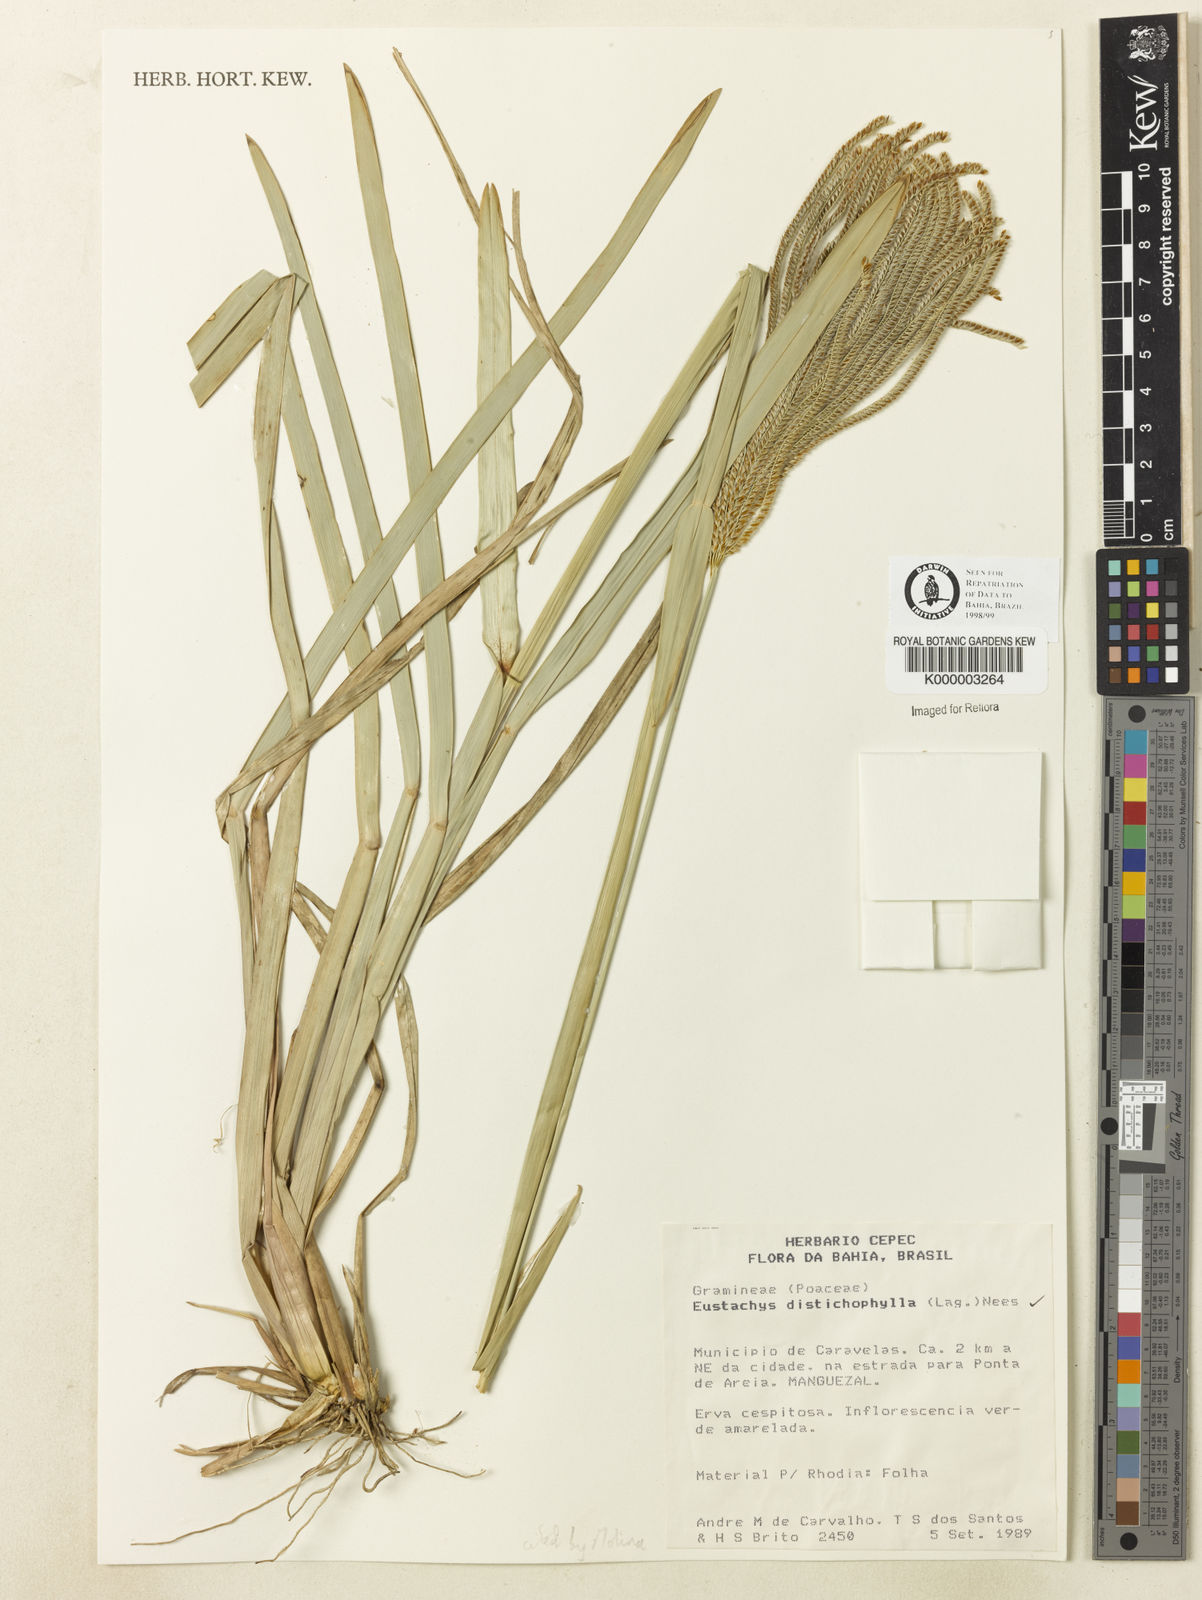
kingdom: Plantae
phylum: Tracheophyta
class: Liliopsida
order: Poales
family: Poaceae
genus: Eustachys
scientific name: Eustachys distichophylla
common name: Weeping fingergrass
